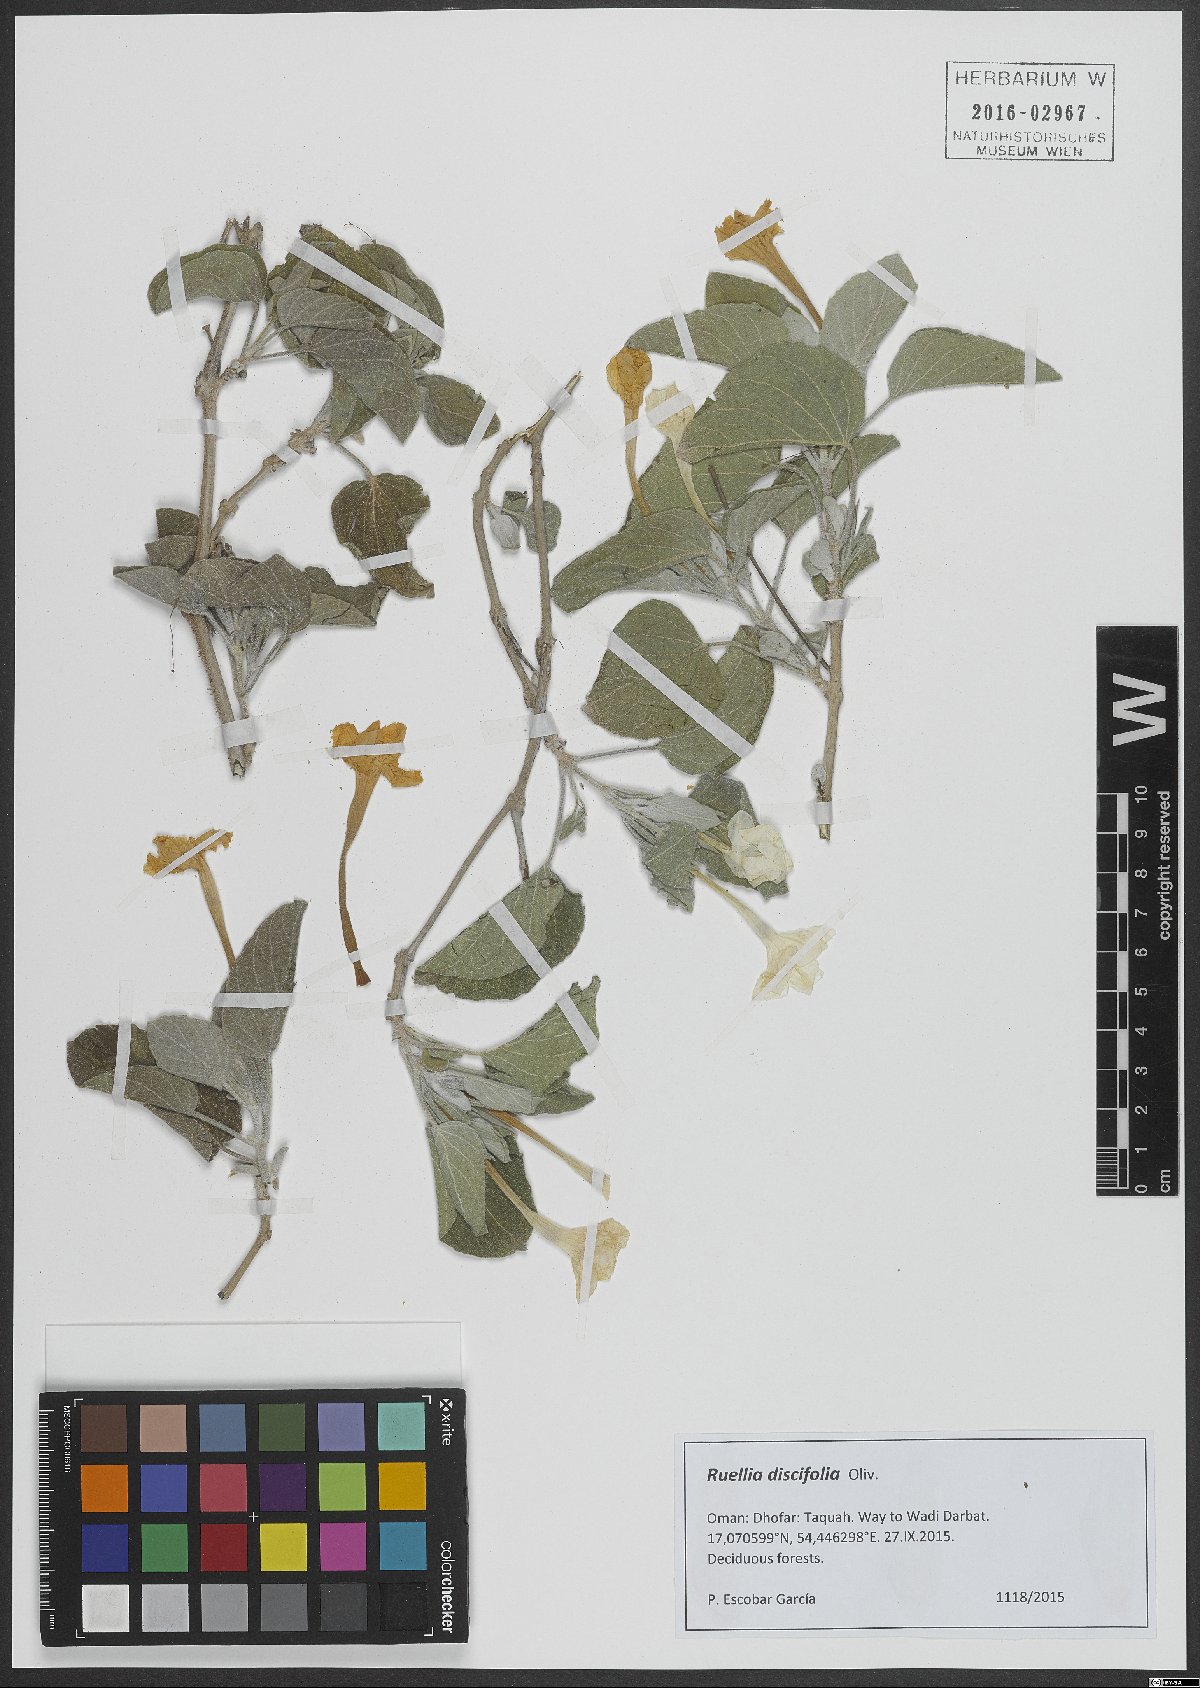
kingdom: Plantae
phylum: Tracheophyta
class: Magnoliopsida
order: Lamiales
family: Acanthaceae
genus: Ruellia
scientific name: Ruellia discifolia
